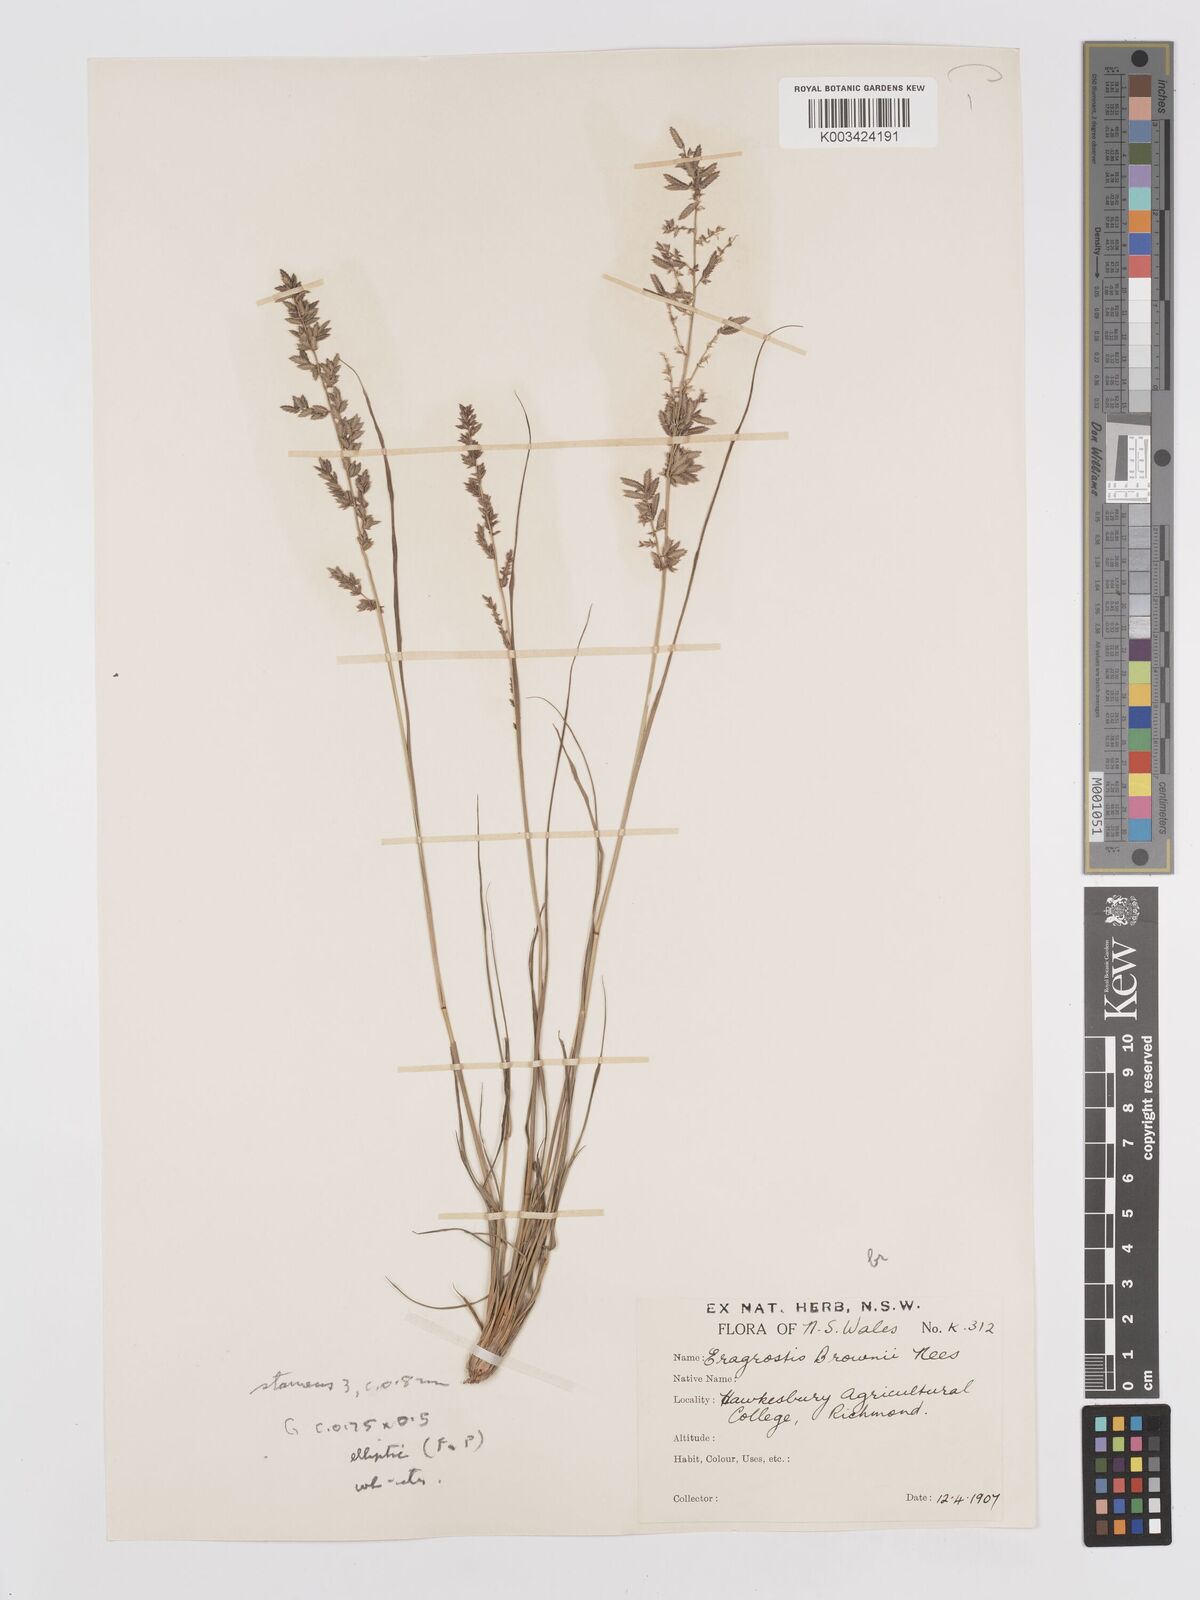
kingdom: Plantae
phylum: Tracheophyta
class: Liliopsida
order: Poales
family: Poaceae
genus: Eragrostis
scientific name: Eragrostis brownii
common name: Lovegrass
